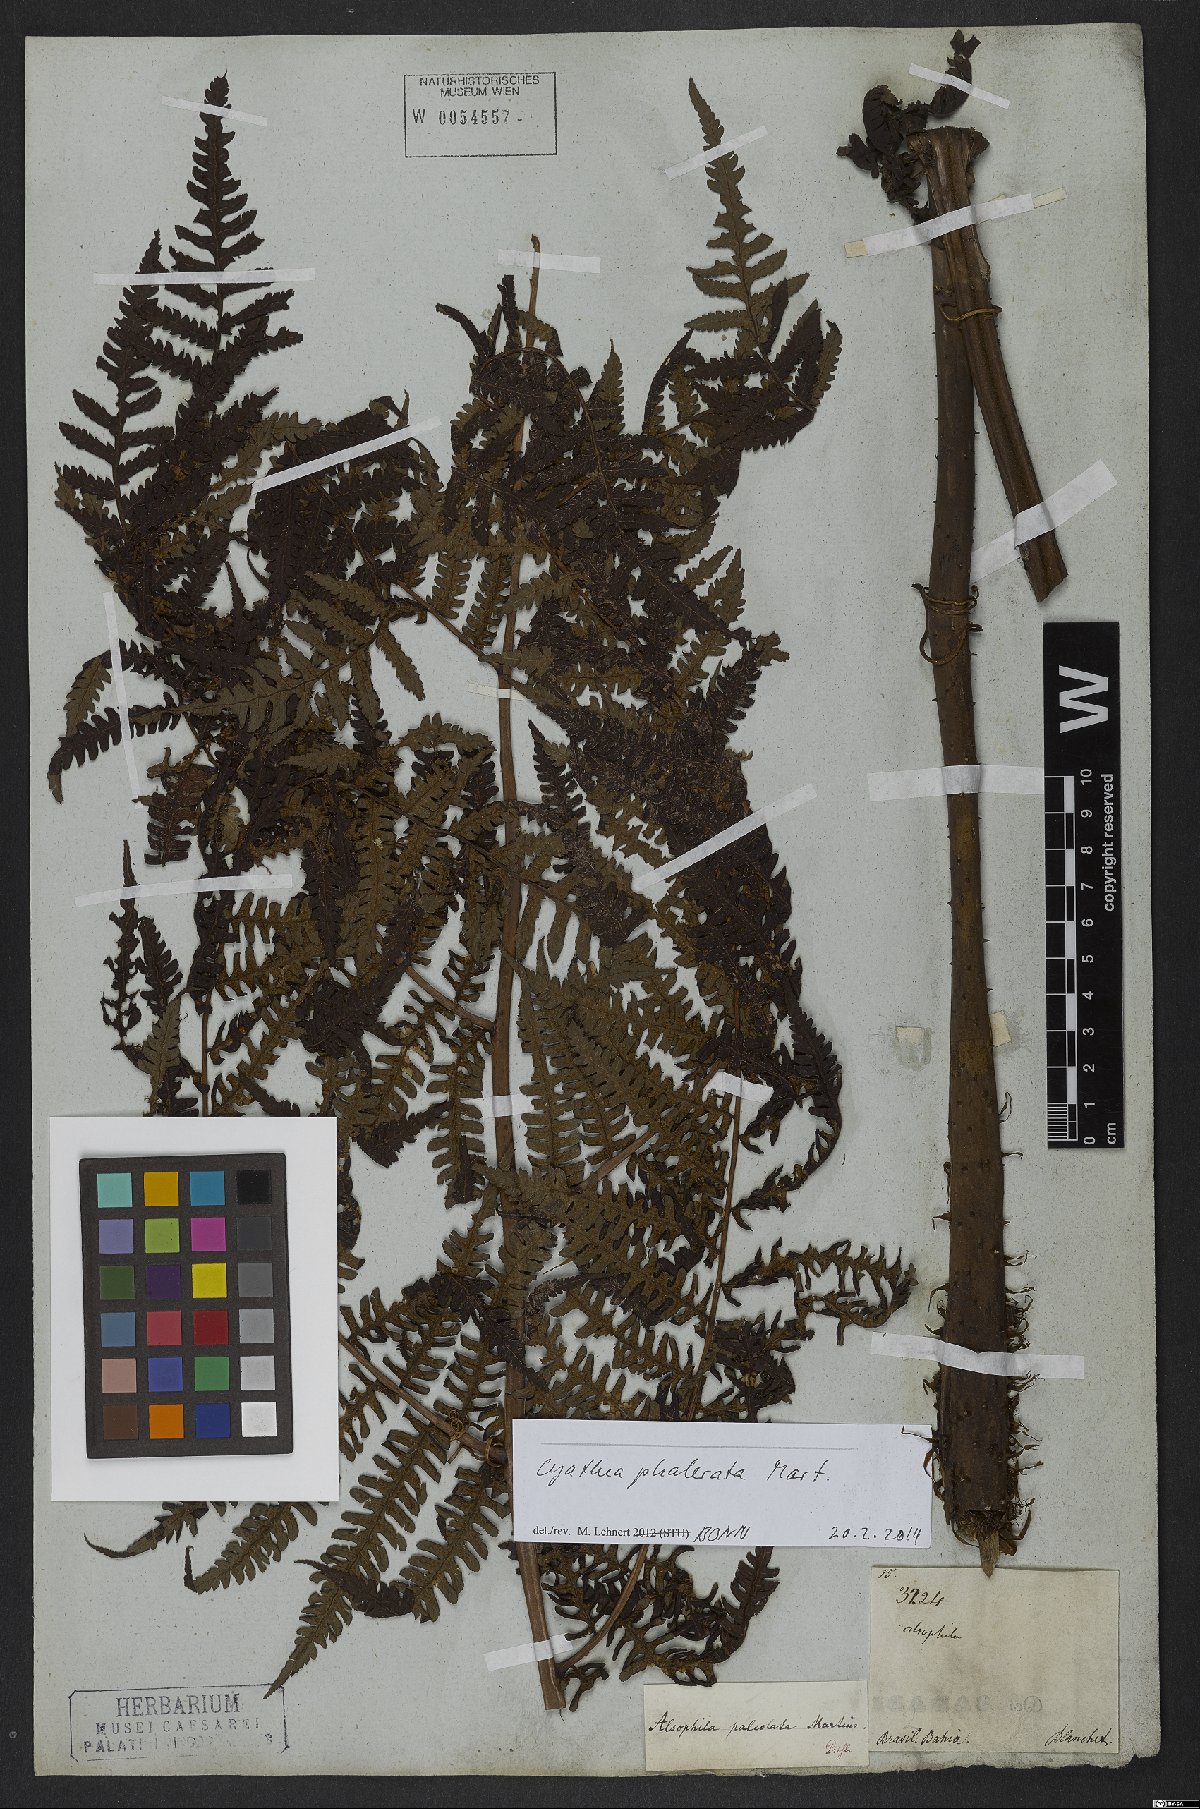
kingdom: Plantae
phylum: Tracheophyta
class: Polypodiopsida
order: Cyatheales
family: Cyatheaceae
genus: Cyathea
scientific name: Cyathea phalerata
